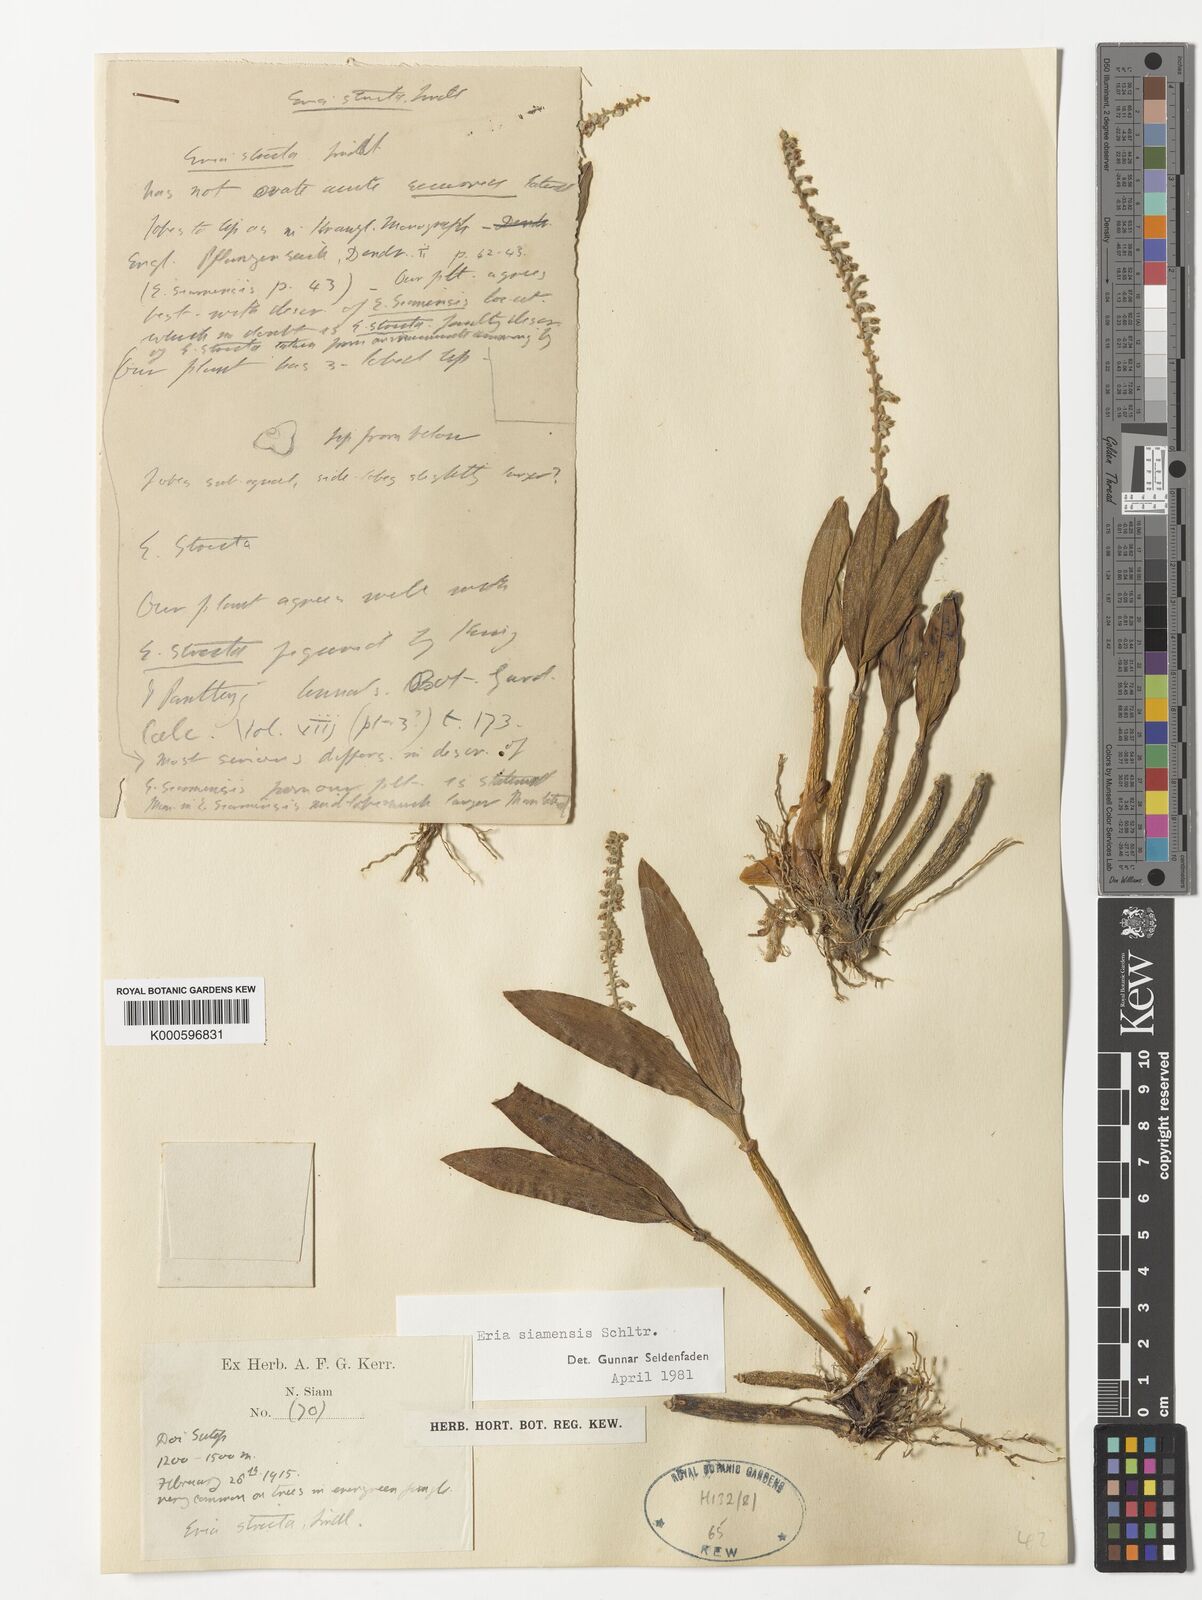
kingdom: Plantae
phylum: Tracheophyta
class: Liliopsida
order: Asparagales
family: Orchidaceae
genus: Cryptochilus
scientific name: Cryptochilus siamensis
